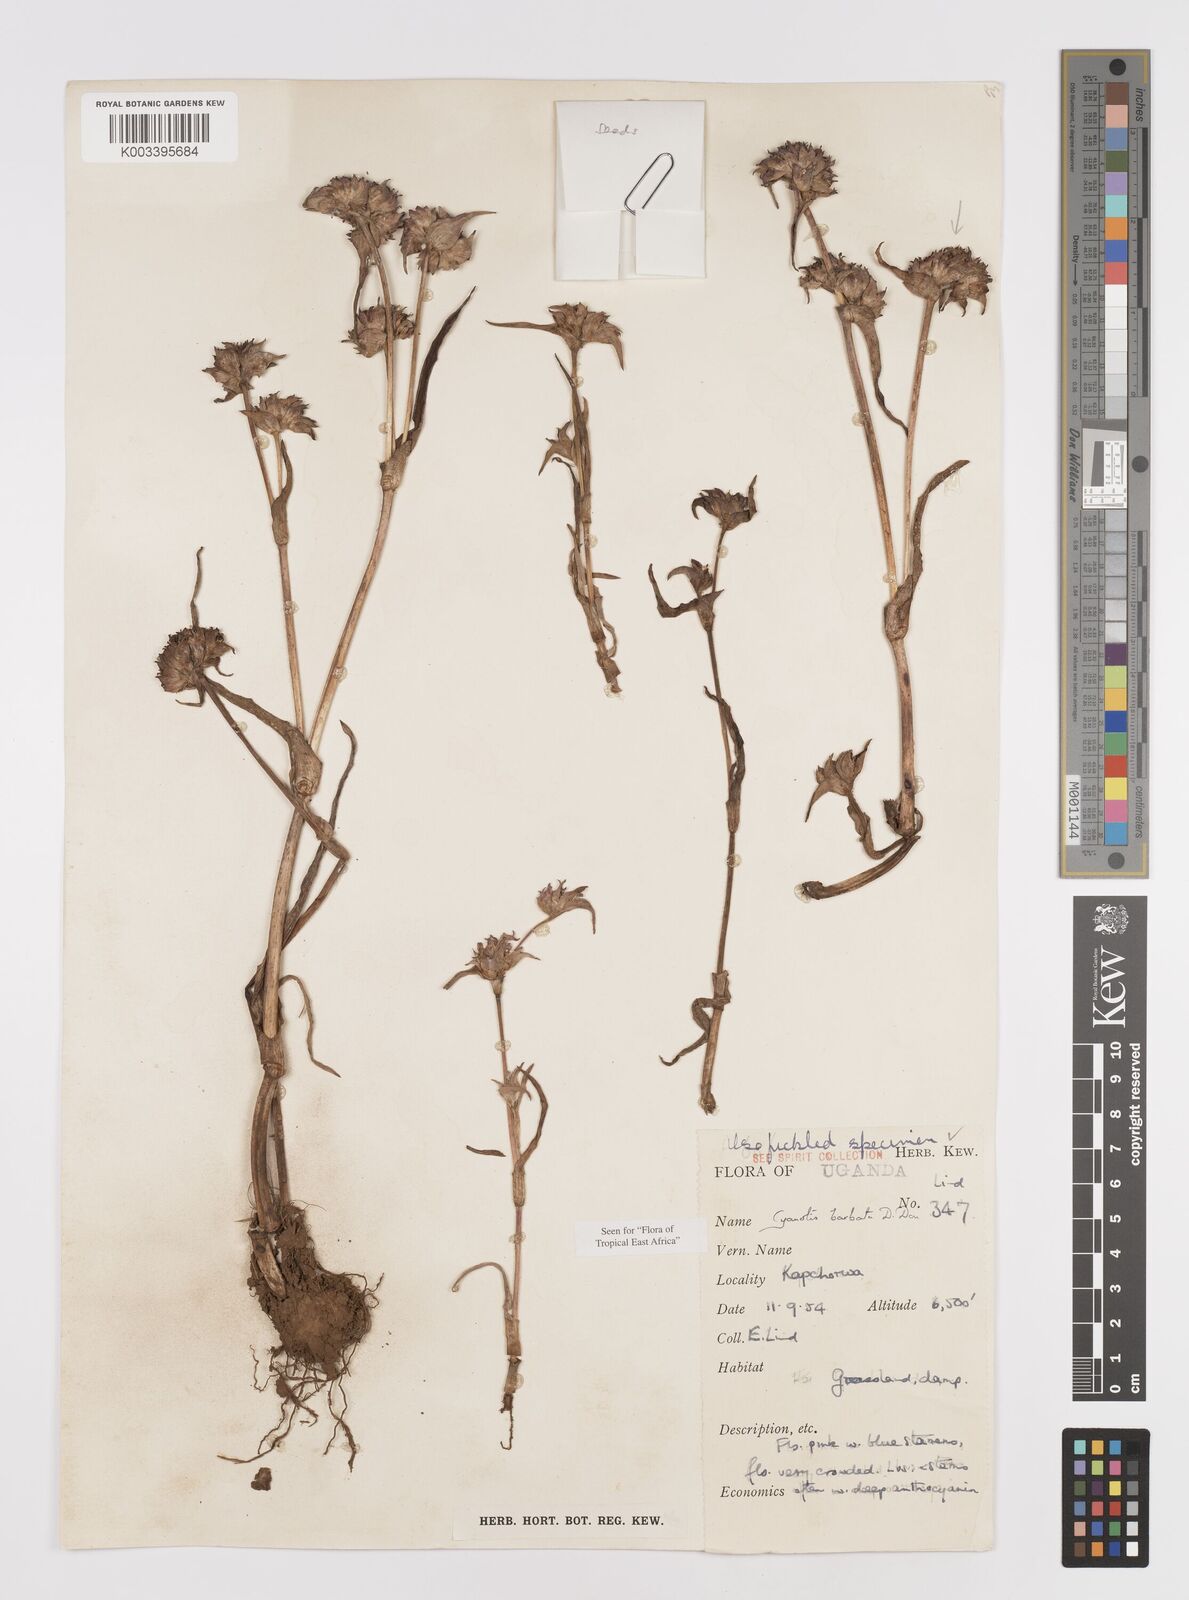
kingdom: Plantae
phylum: Tracheophyta
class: Liliopsida
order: Commelinales
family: Commelinaceae
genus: Cyanotis
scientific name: Cyanotis vaga
